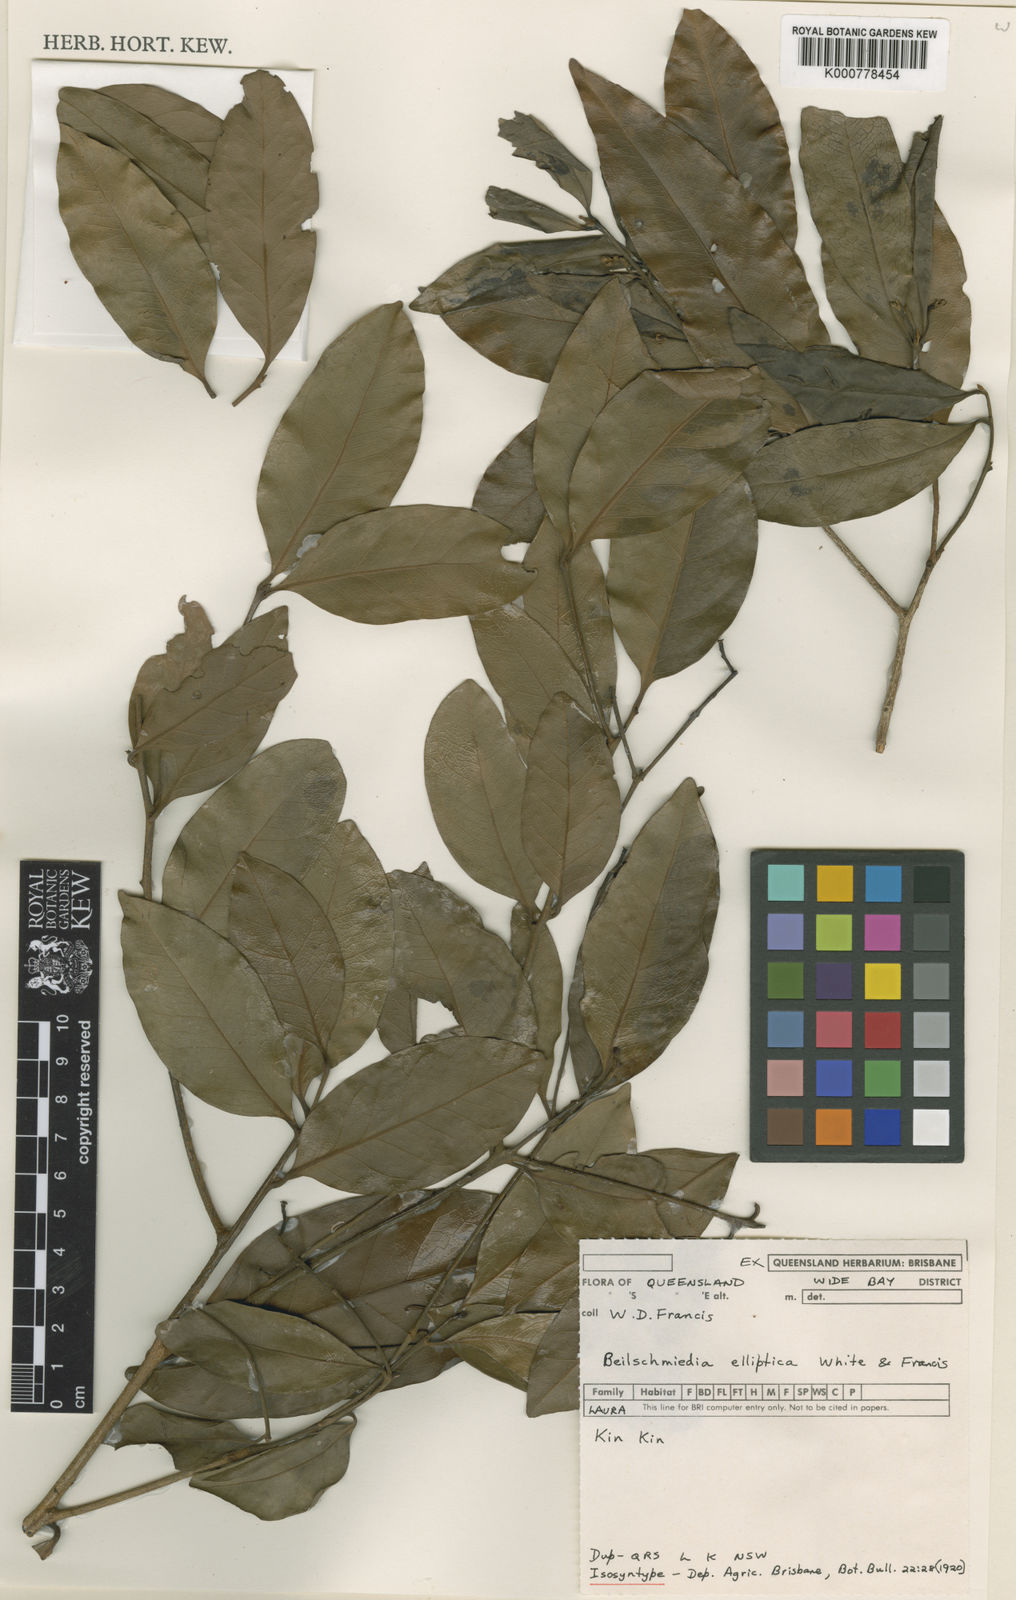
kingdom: Plantae
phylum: Tracheophyta
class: Magnoliopsida
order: Laurales
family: Lauraceae
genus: Beilschmiedia
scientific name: Beilschmiedia elliptica
